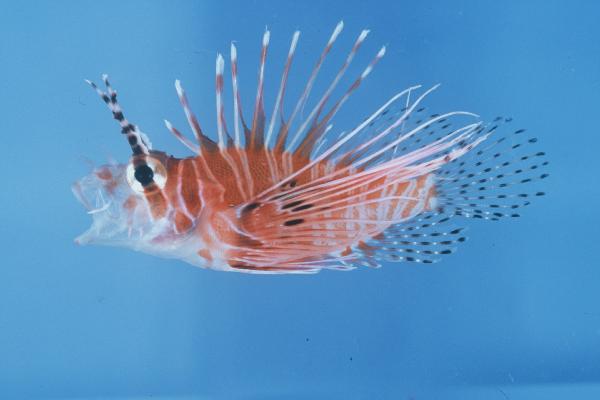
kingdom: Animalia
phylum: Chordata
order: Scorpaeniformes
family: Scorpaenidae
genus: Pterois
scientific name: Pterois antennata
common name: Spotfin lionfish
